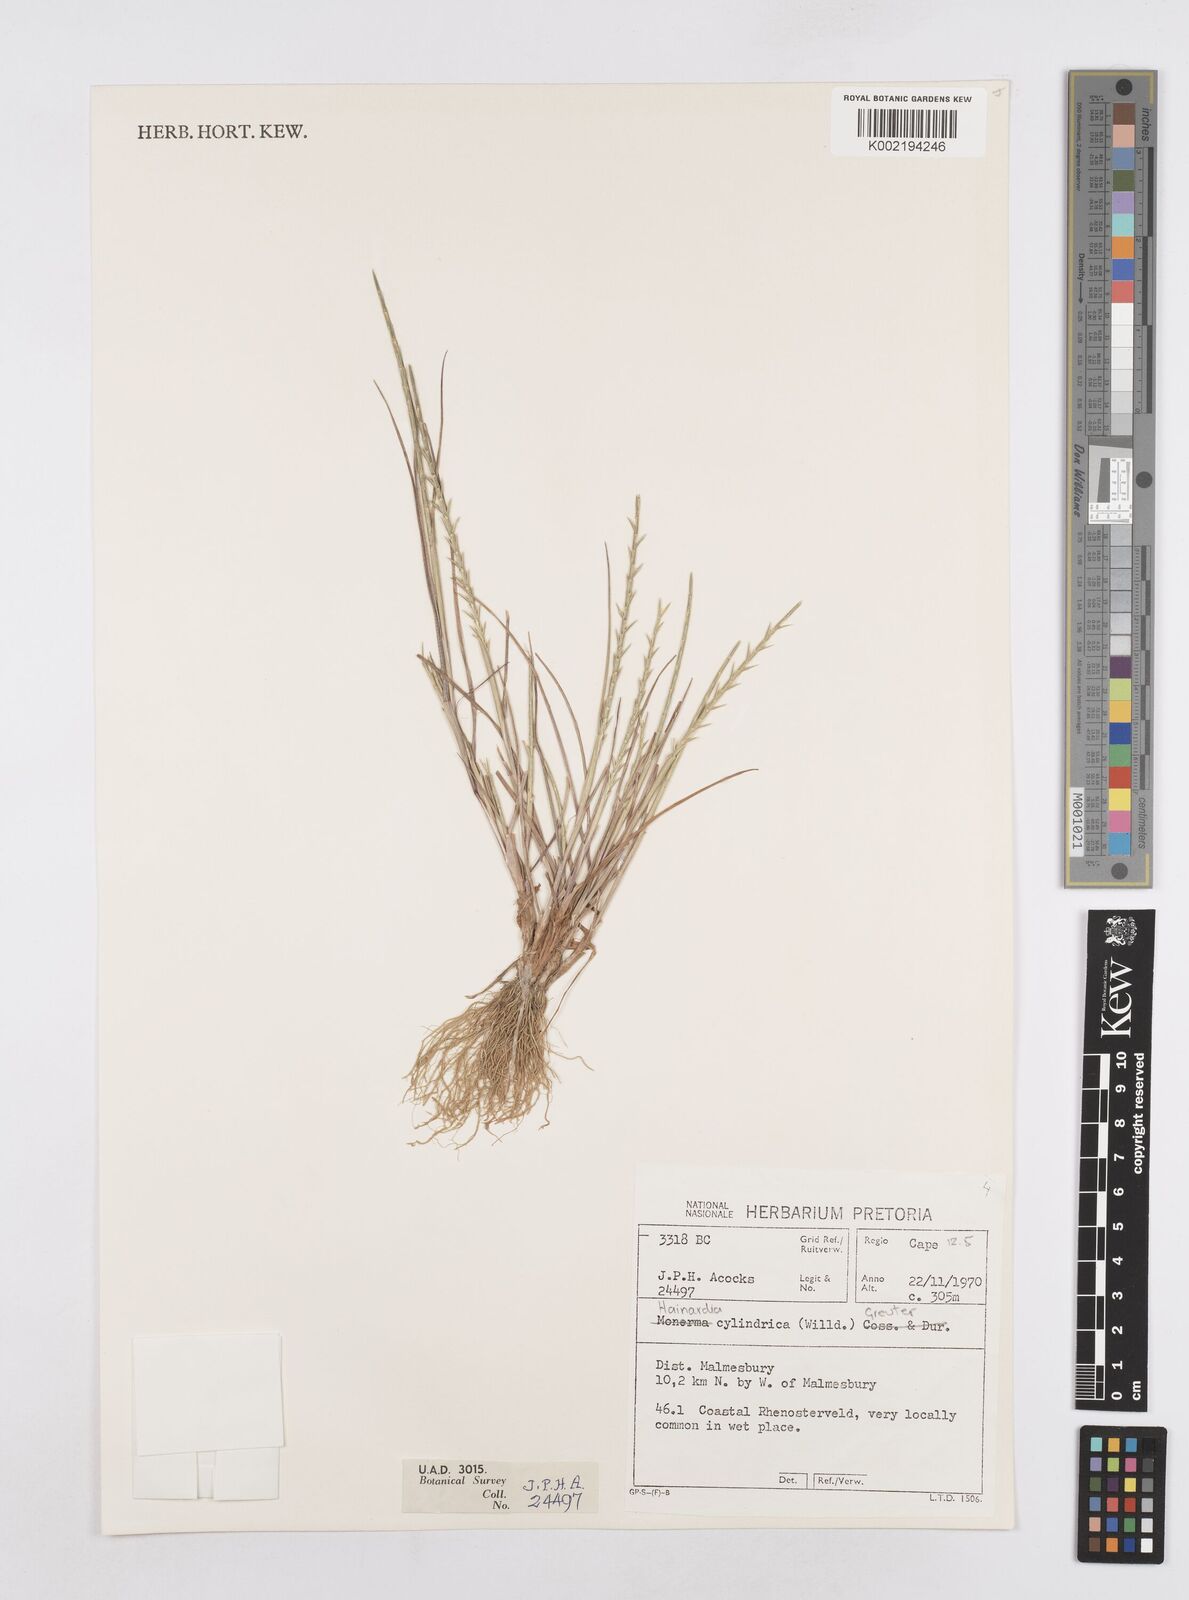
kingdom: Plantae
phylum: Tracheophyta
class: Liliopsida
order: Poales
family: Poaceae
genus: Parapholis
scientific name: Parapholis cylindrica
